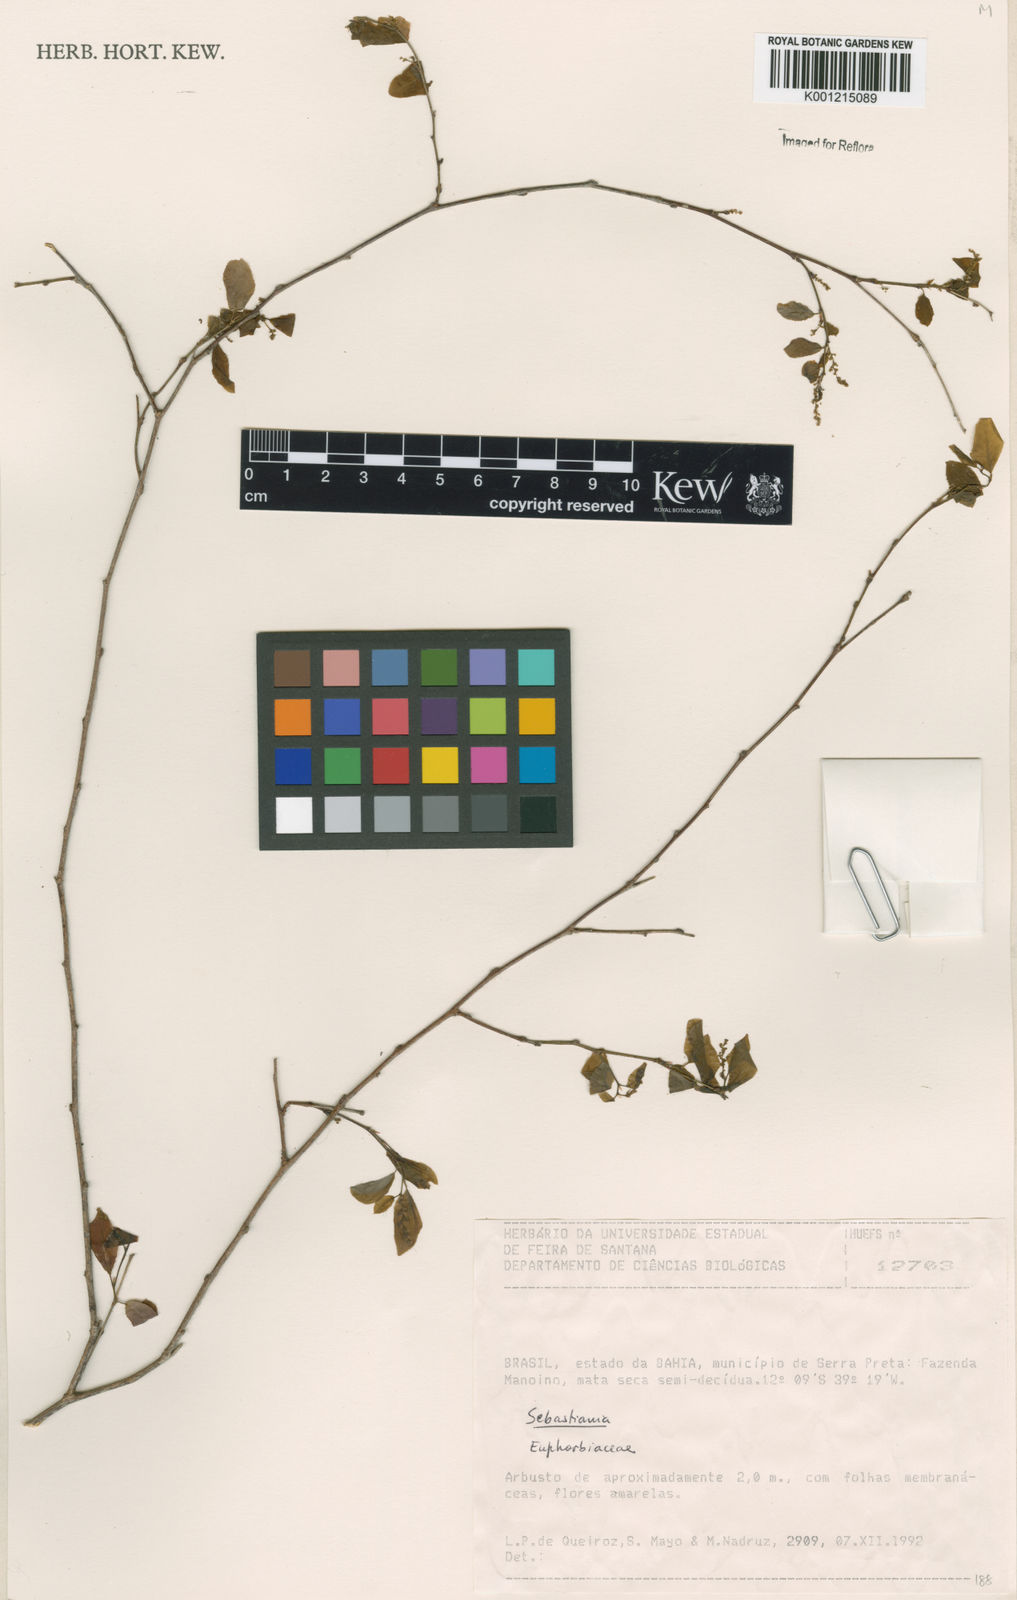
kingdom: Plantae
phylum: Tracheophyta
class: Magnoliopsida
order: Malpighiales
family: Euphorbiaceae
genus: Sebastiania
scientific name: Sebastiania
